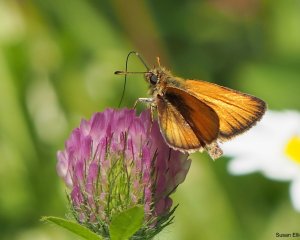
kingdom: Animalia
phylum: Arthropoda
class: Insecta
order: Lepidoptera
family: Hesperiidae
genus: Thymelicus
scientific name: Thymelicus lineola
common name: European Skipper
